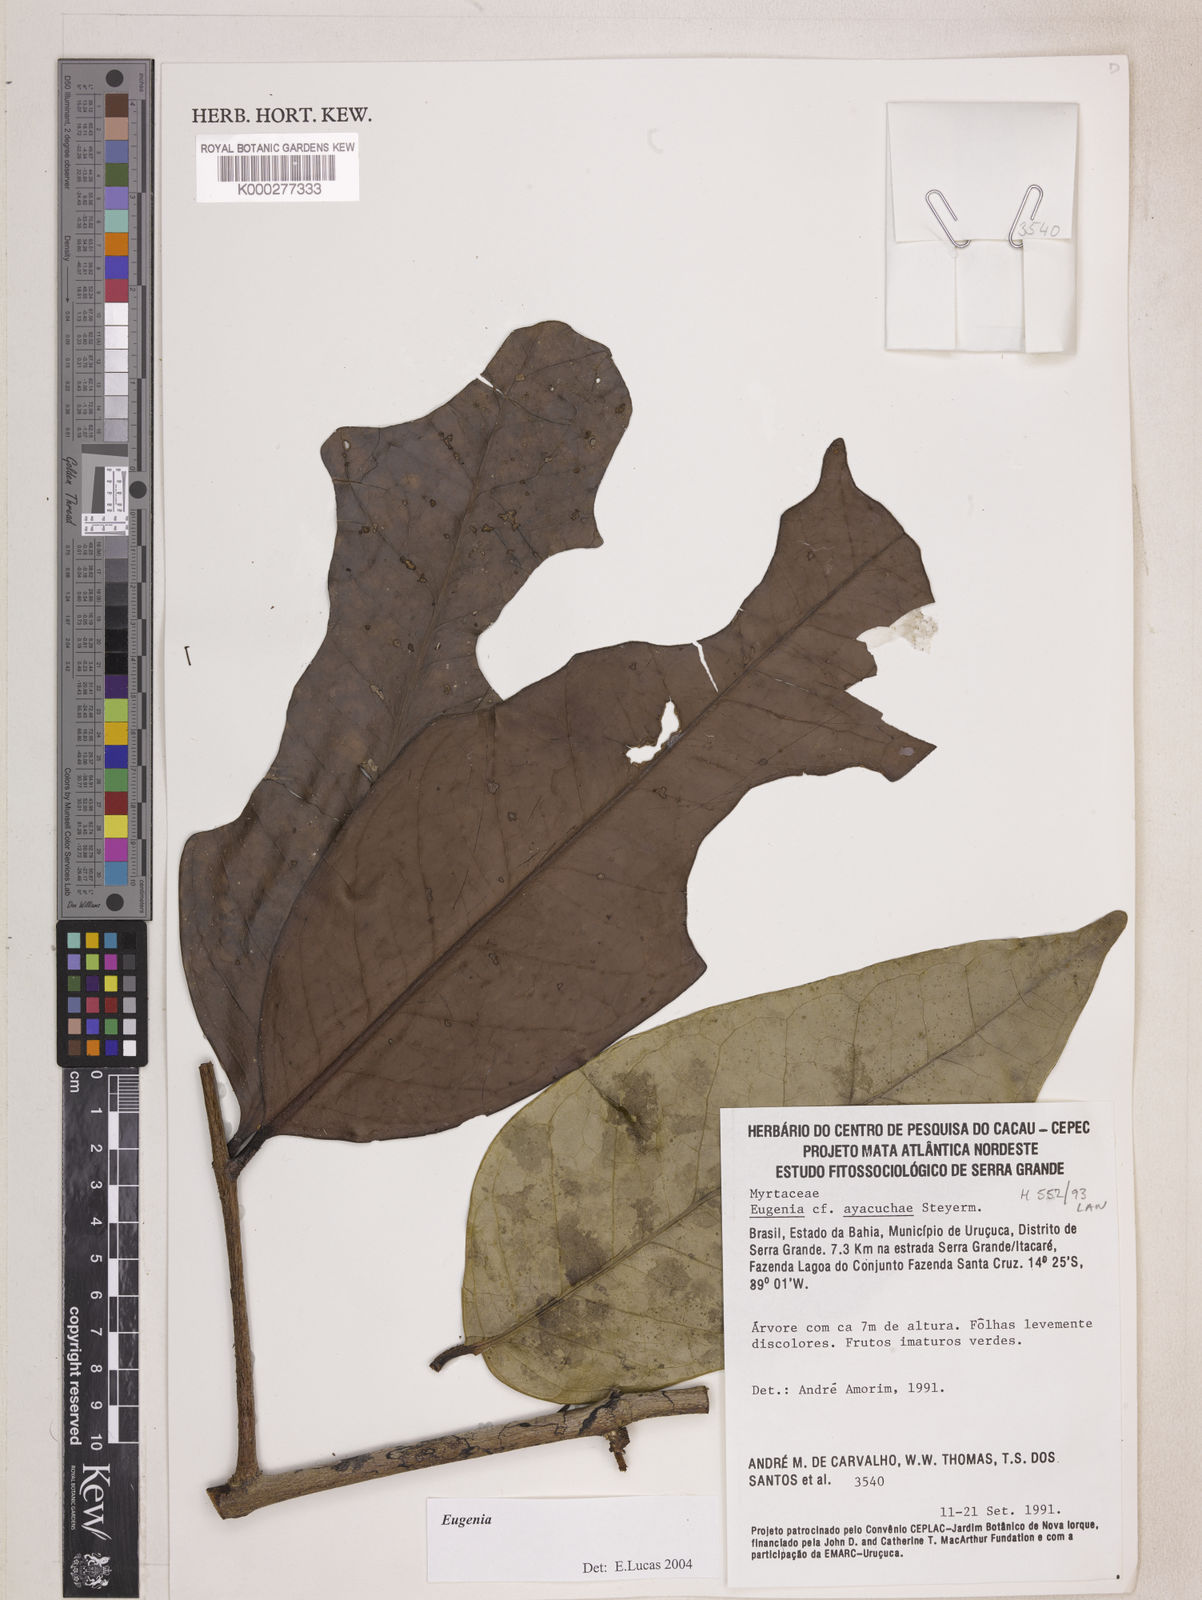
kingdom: Plantae
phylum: Tracheophyta
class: Magnoliopsida
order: Myrtales
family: Myrtaceae
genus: Eugenia
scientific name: Eugenia ayacuchae
